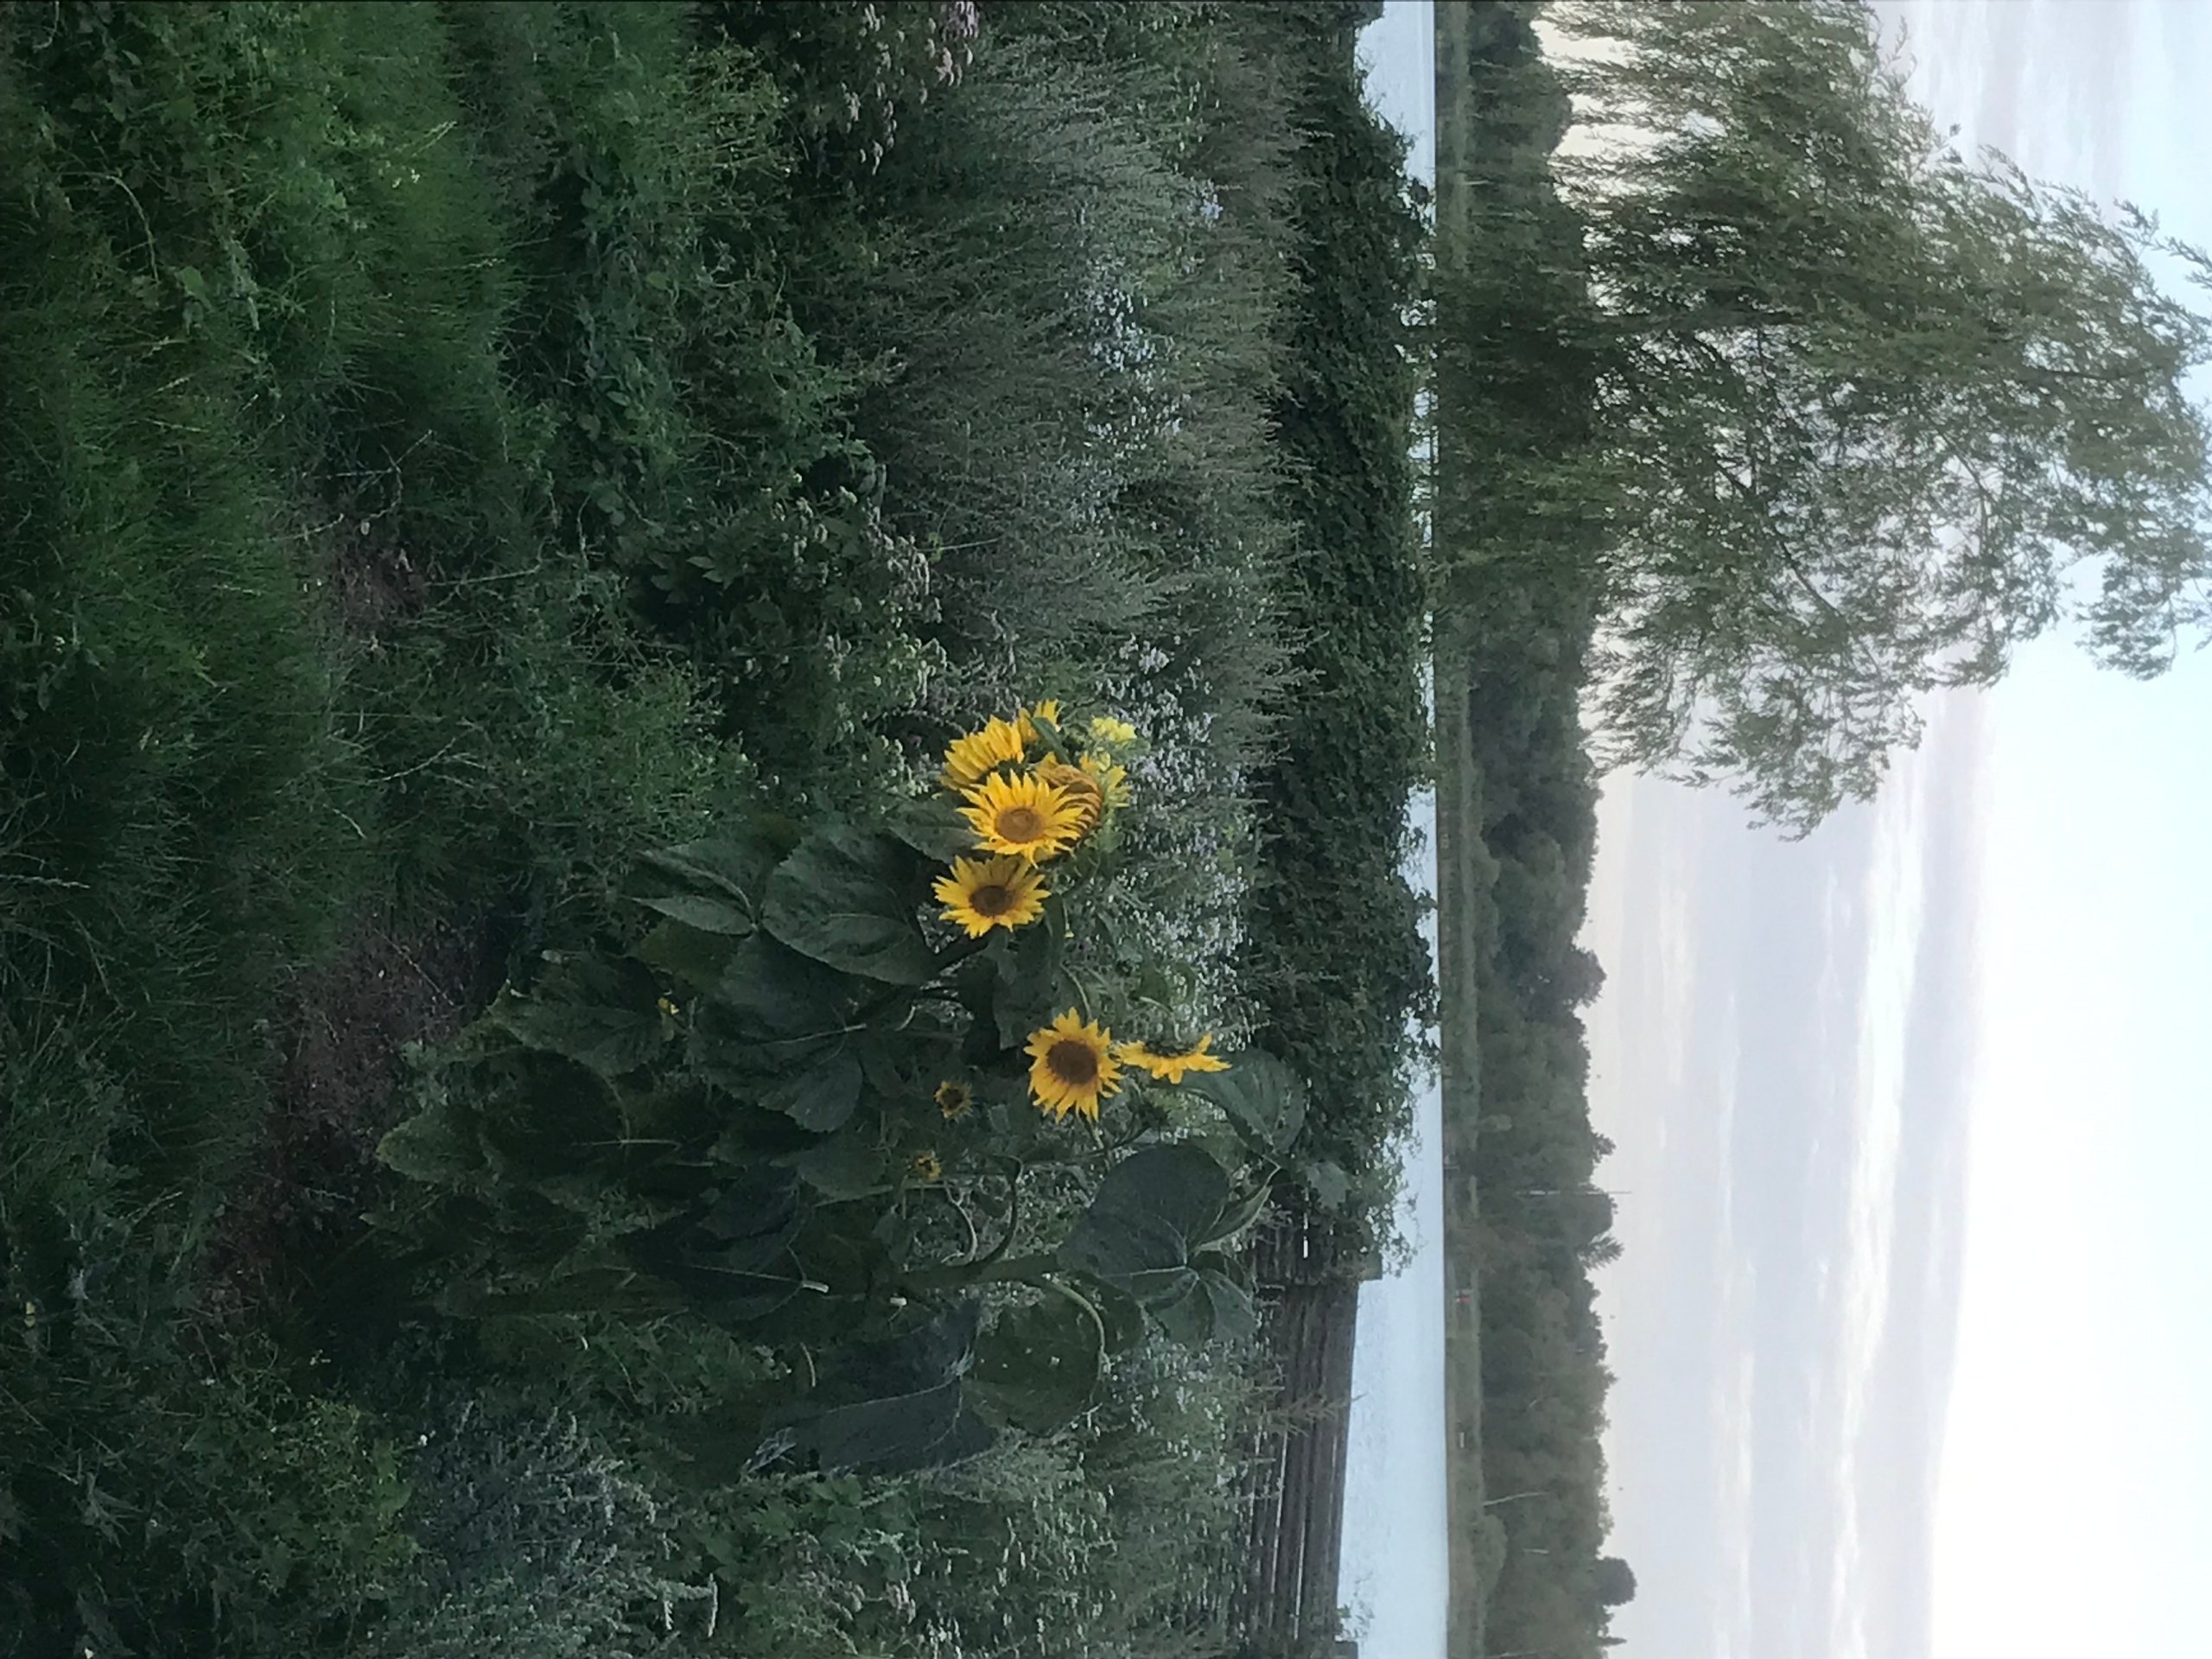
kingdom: Plantae
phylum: Tracheophyta
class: Magnoliopsida
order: Asterales
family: Asteraceae
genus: Helianthus
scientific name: Helianthus annuus
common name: Solsikke
